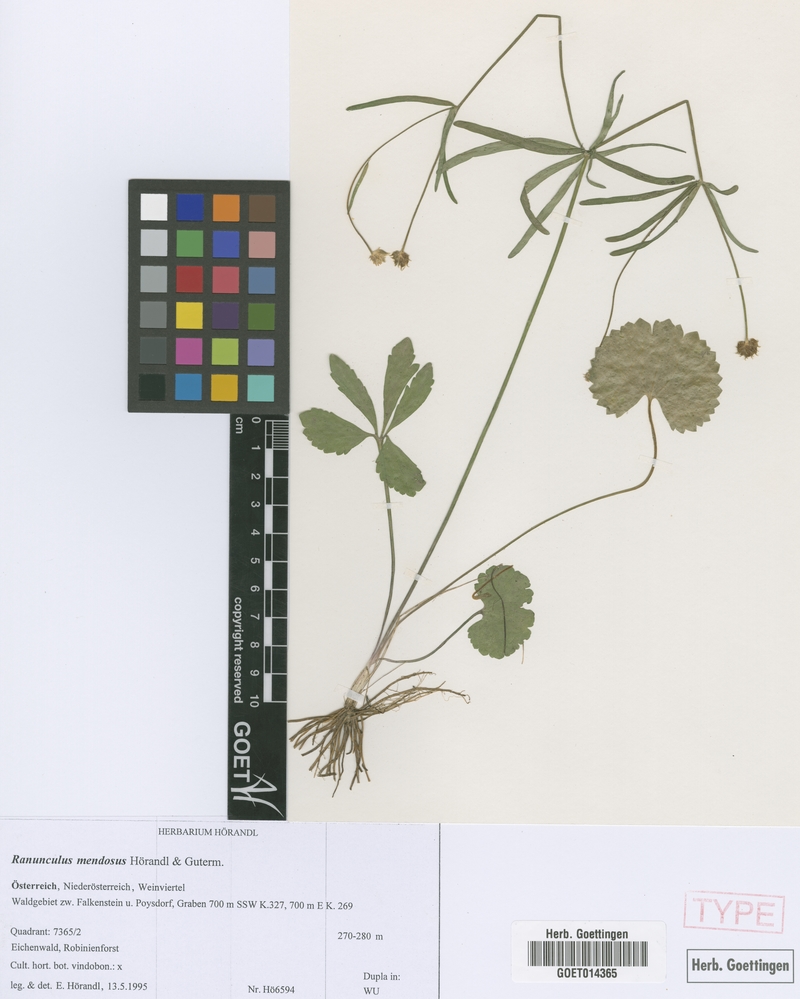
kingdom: Plantae
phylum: Tracheophyta
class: Magnoliopsida
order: Ranunculales
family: Ranunculaceae
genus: Ranunculus
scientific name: Ranunculus mendosus
